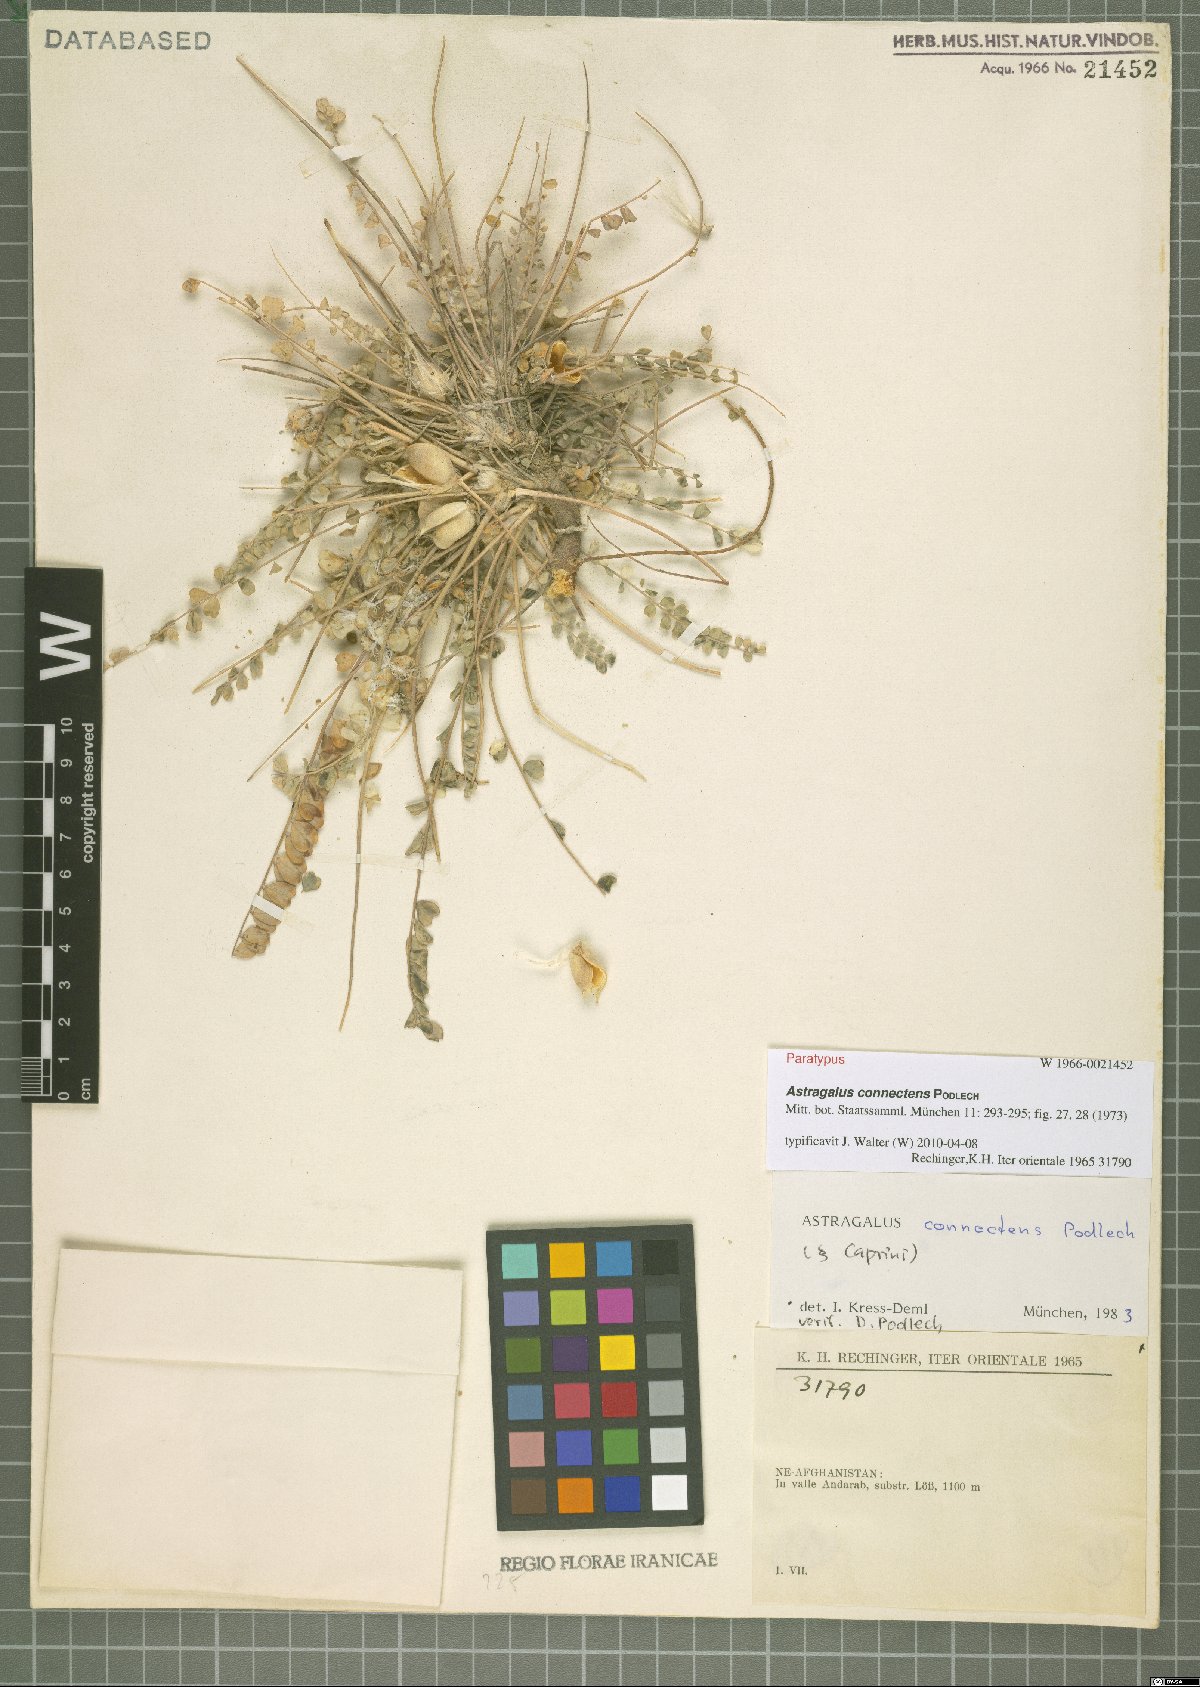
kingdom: Plantae
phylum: Tracheophyta
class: Magnoliopsida
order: Fabales
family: Fabaceae
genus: Astragalus
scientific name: Astragalus connectens
